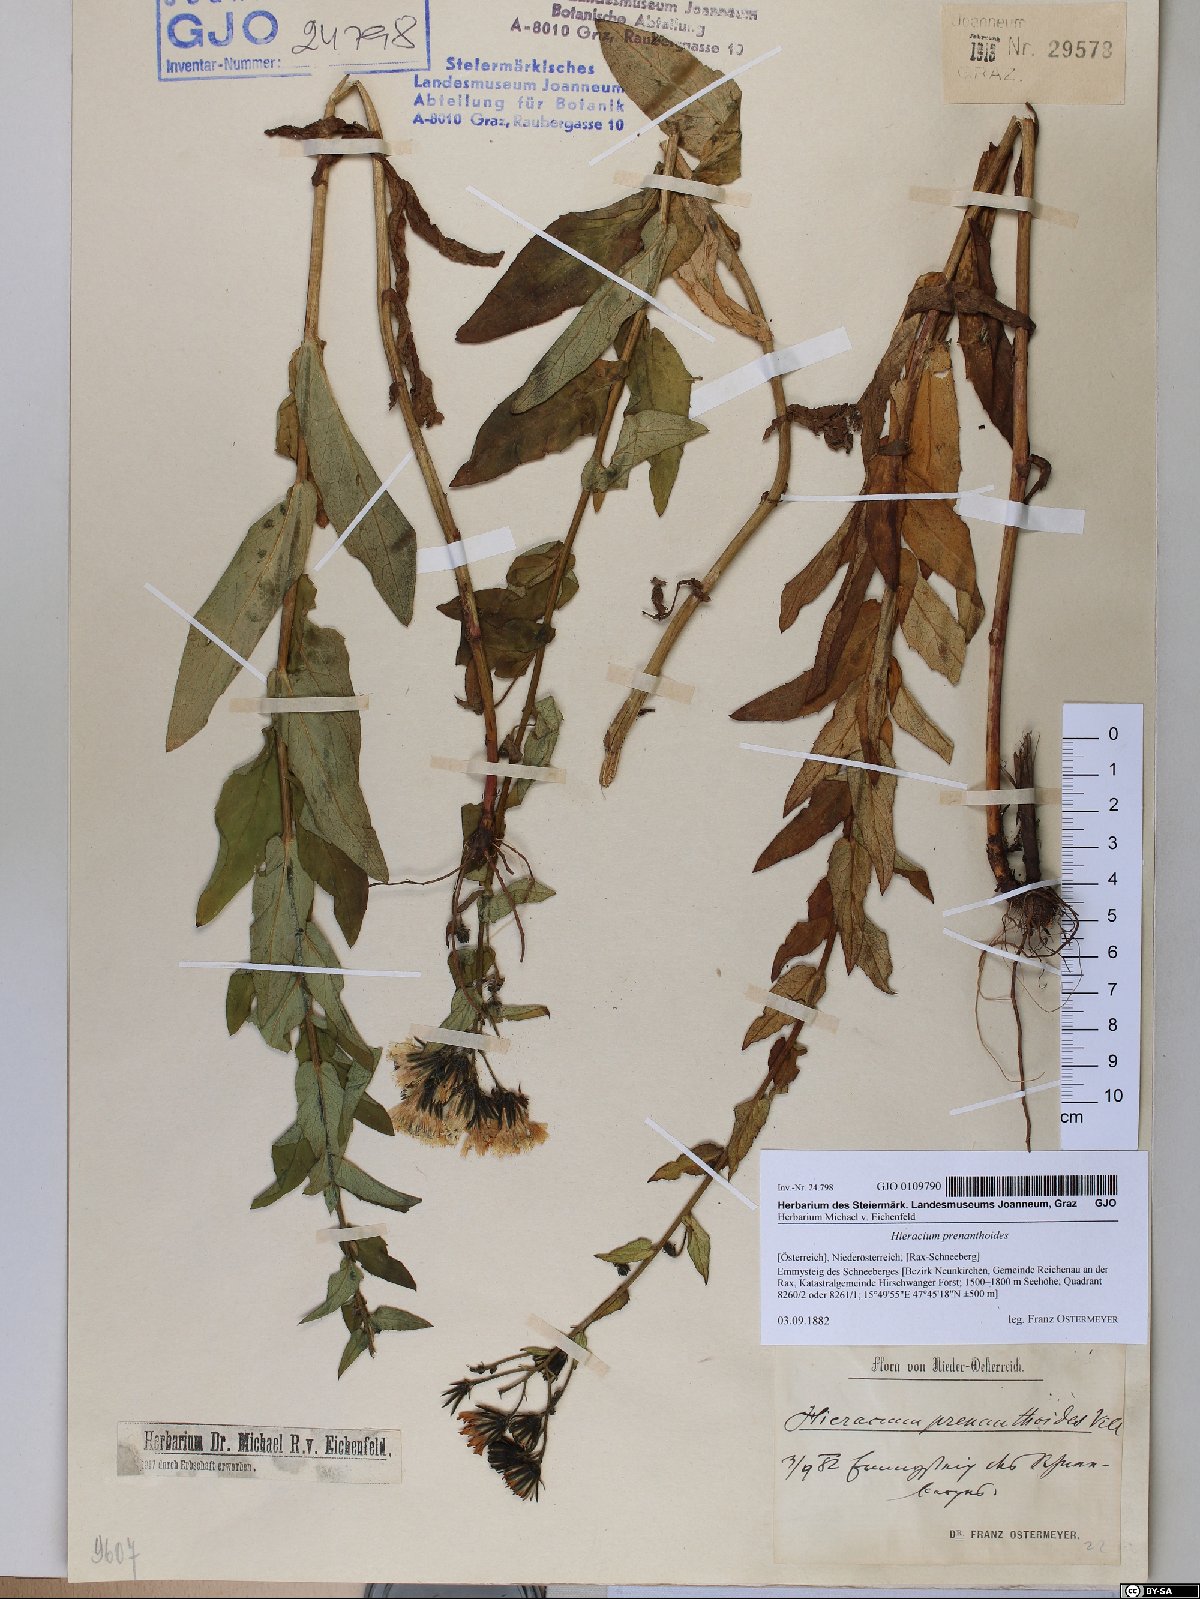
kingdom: Plantae
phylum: Tracheophyta
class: Magnoliopsida
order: Asterales
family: Asteraceae
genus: Hieracium
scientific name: Hieracium prenanthoides
